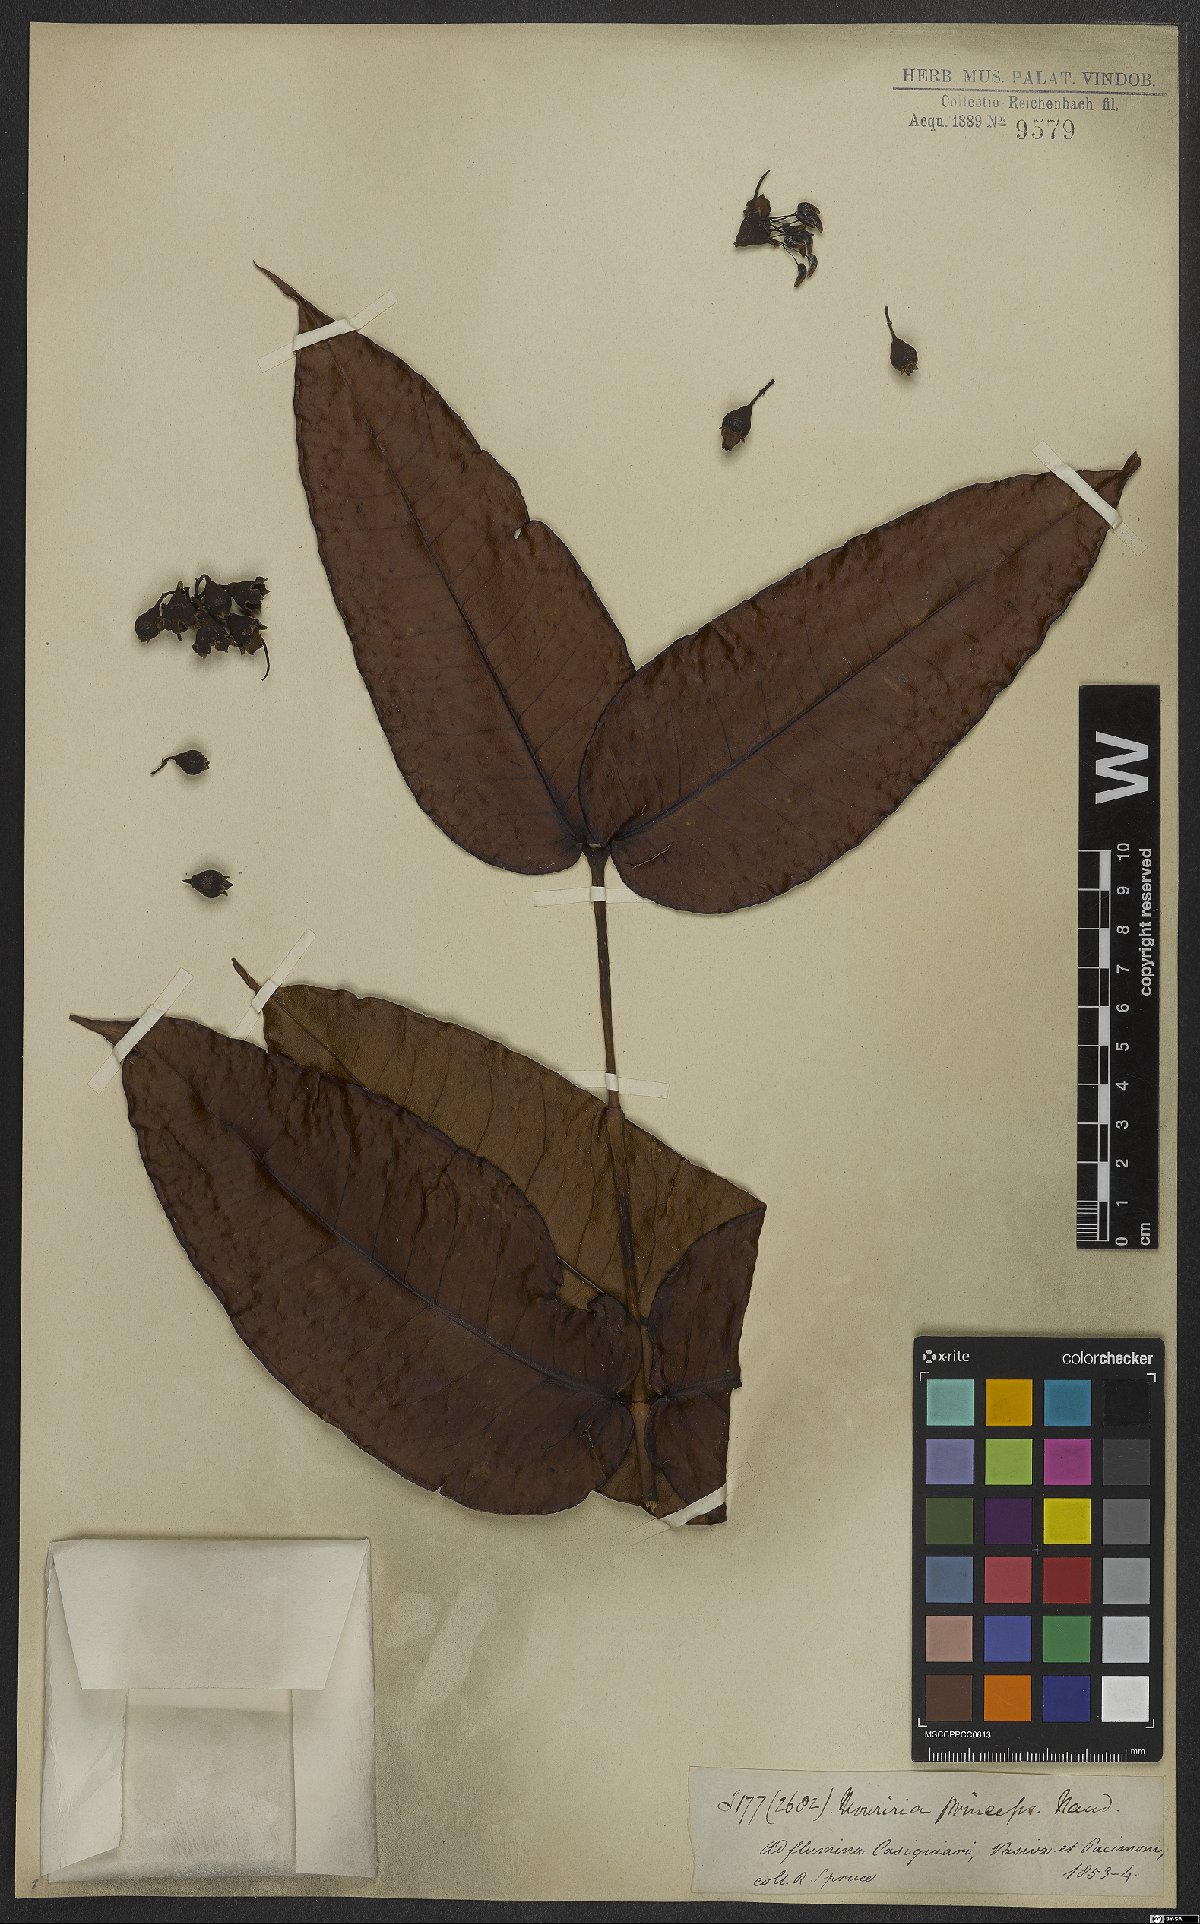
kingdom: Plantae
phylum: Tracheophyta
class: Magnoliopsida
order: Myrtales
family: Melastomataceae
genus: Mouriri
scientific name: Mouriri grandiflora
